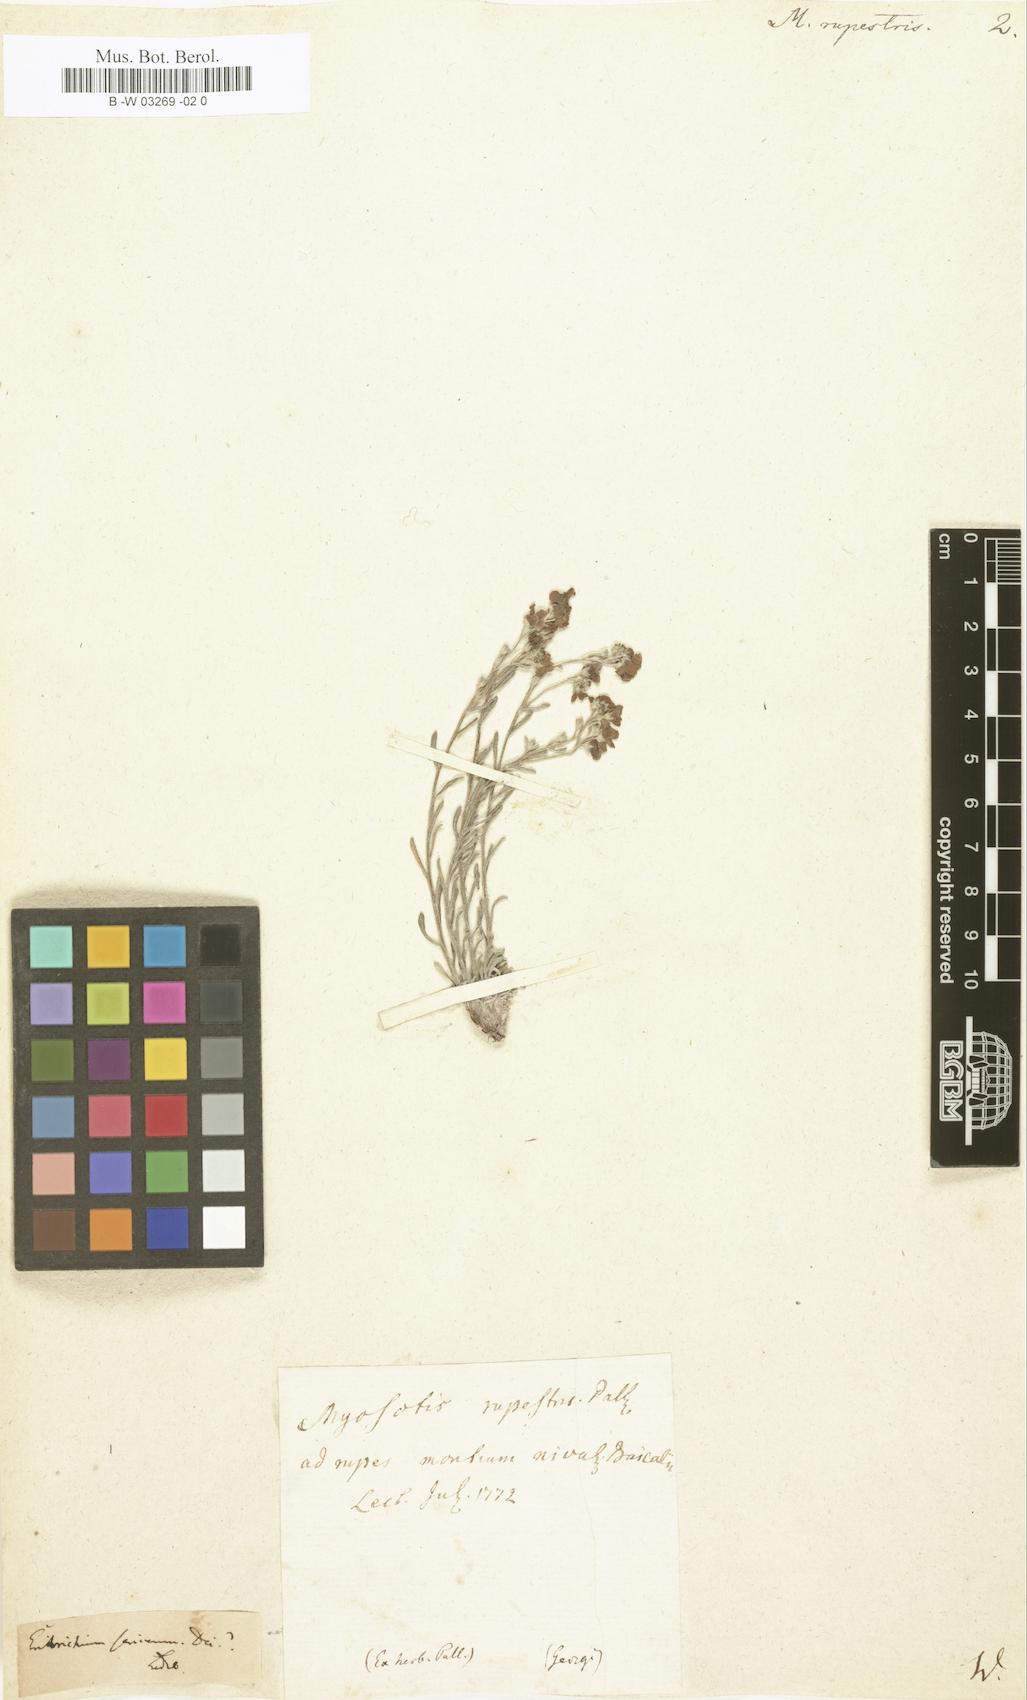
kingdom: Plantae
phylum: Tracheophyta
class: Magnoliopsida
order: Boraginales
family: Boraginaceae
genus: Myosotis
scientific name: Myosotis rupestris
